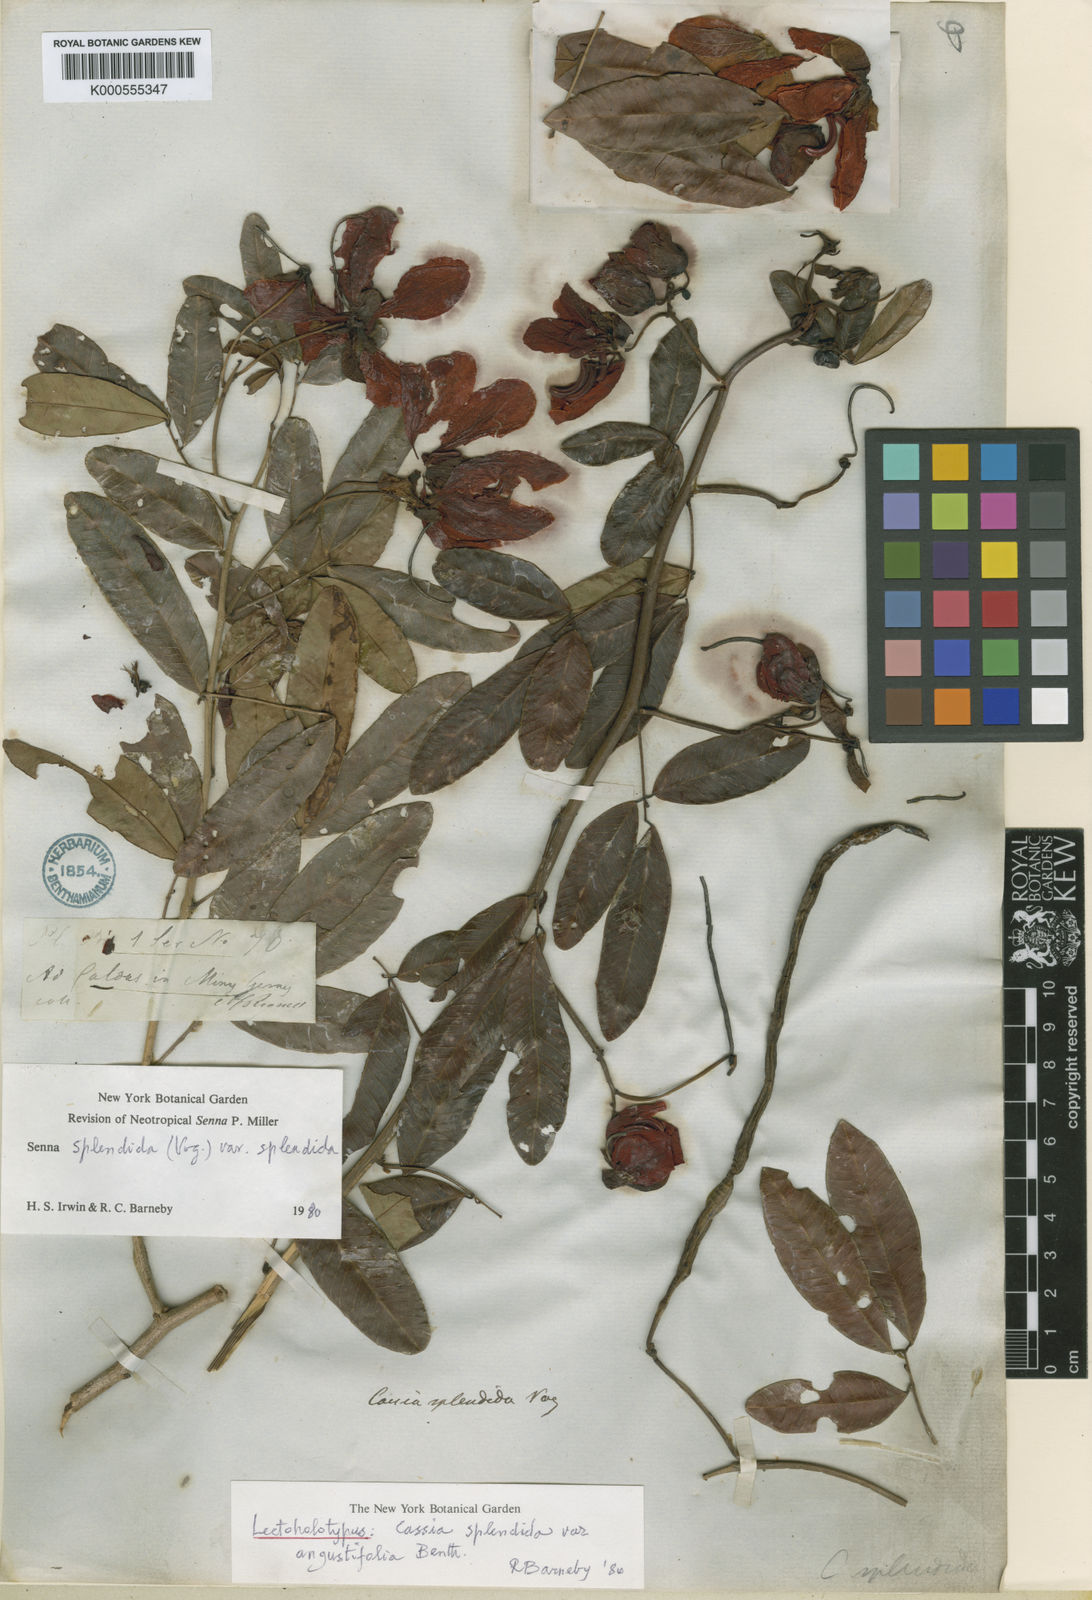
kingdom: Plantae
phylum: Tracheophyta
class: Magnoliopsida
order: Fabales
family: Fabaceae
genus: Senna
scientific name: Senna splendida
